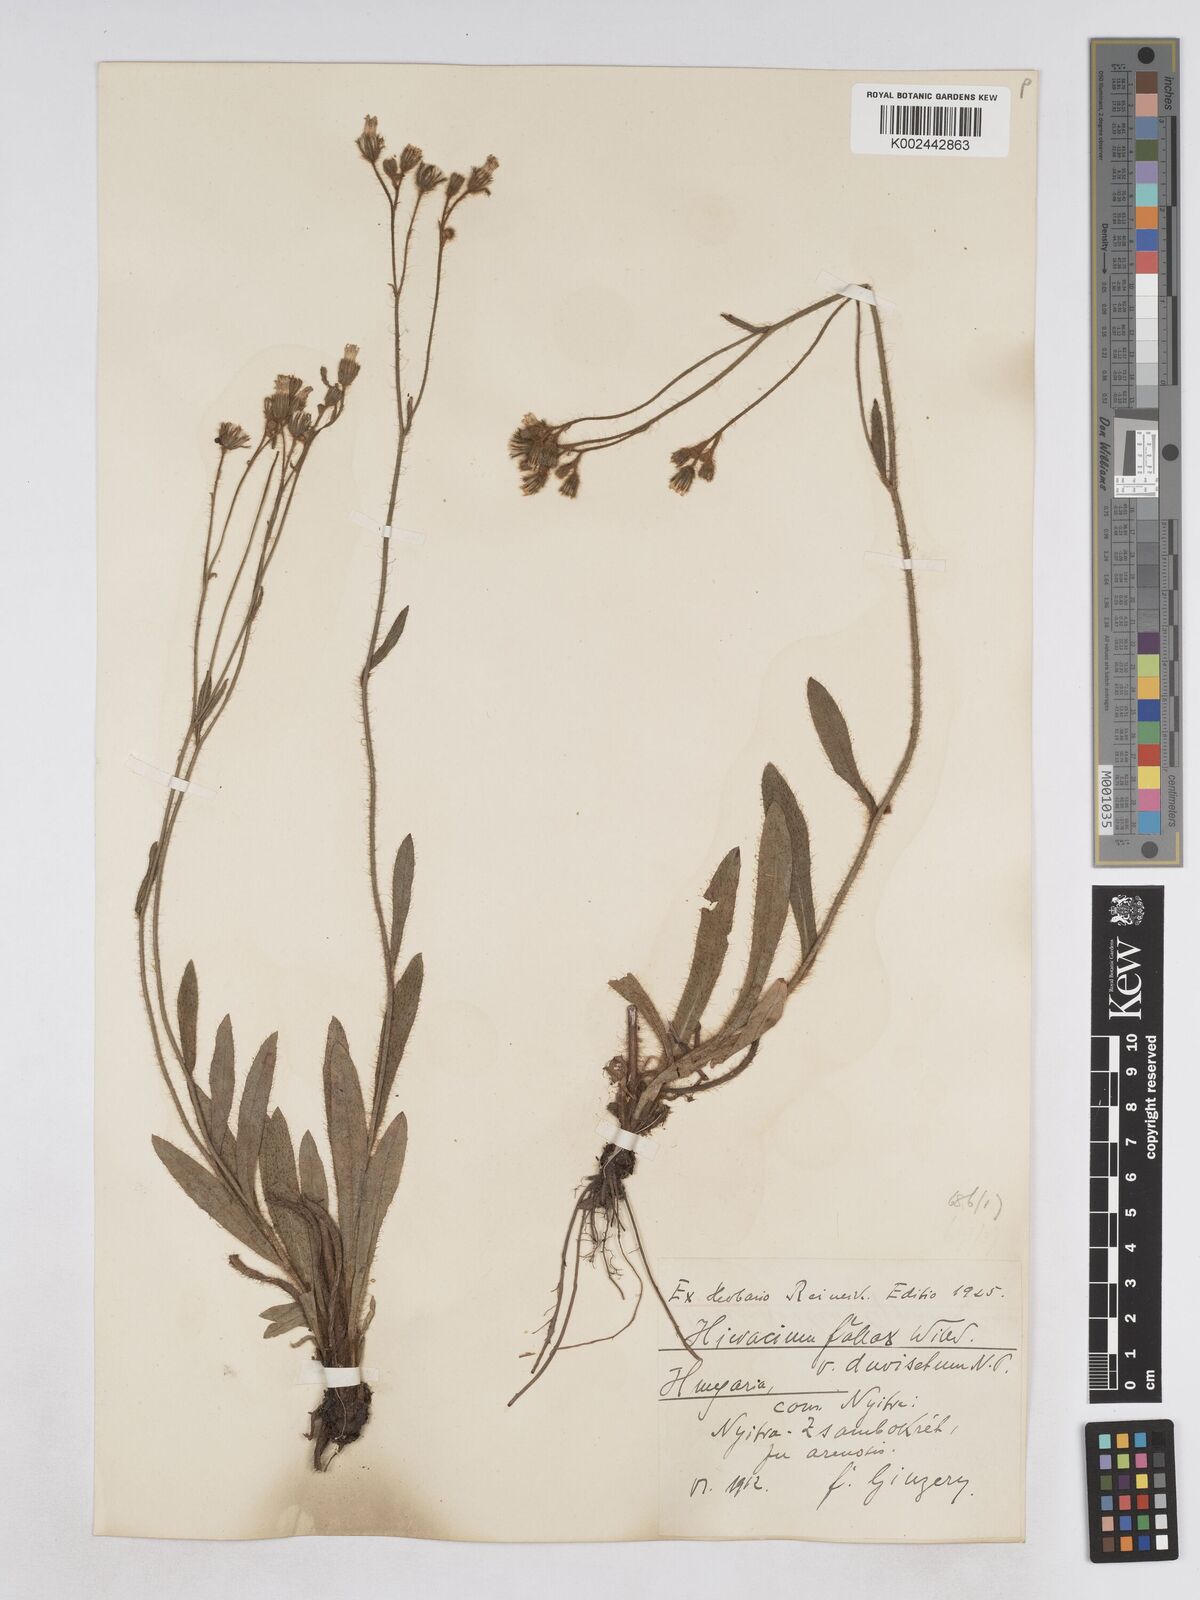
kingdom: Plantae
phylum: Tracheophyta
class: Magnoliopsida
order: Asterales
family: Asteraceae
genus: Pilosella
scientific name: Pilosella bifurca
